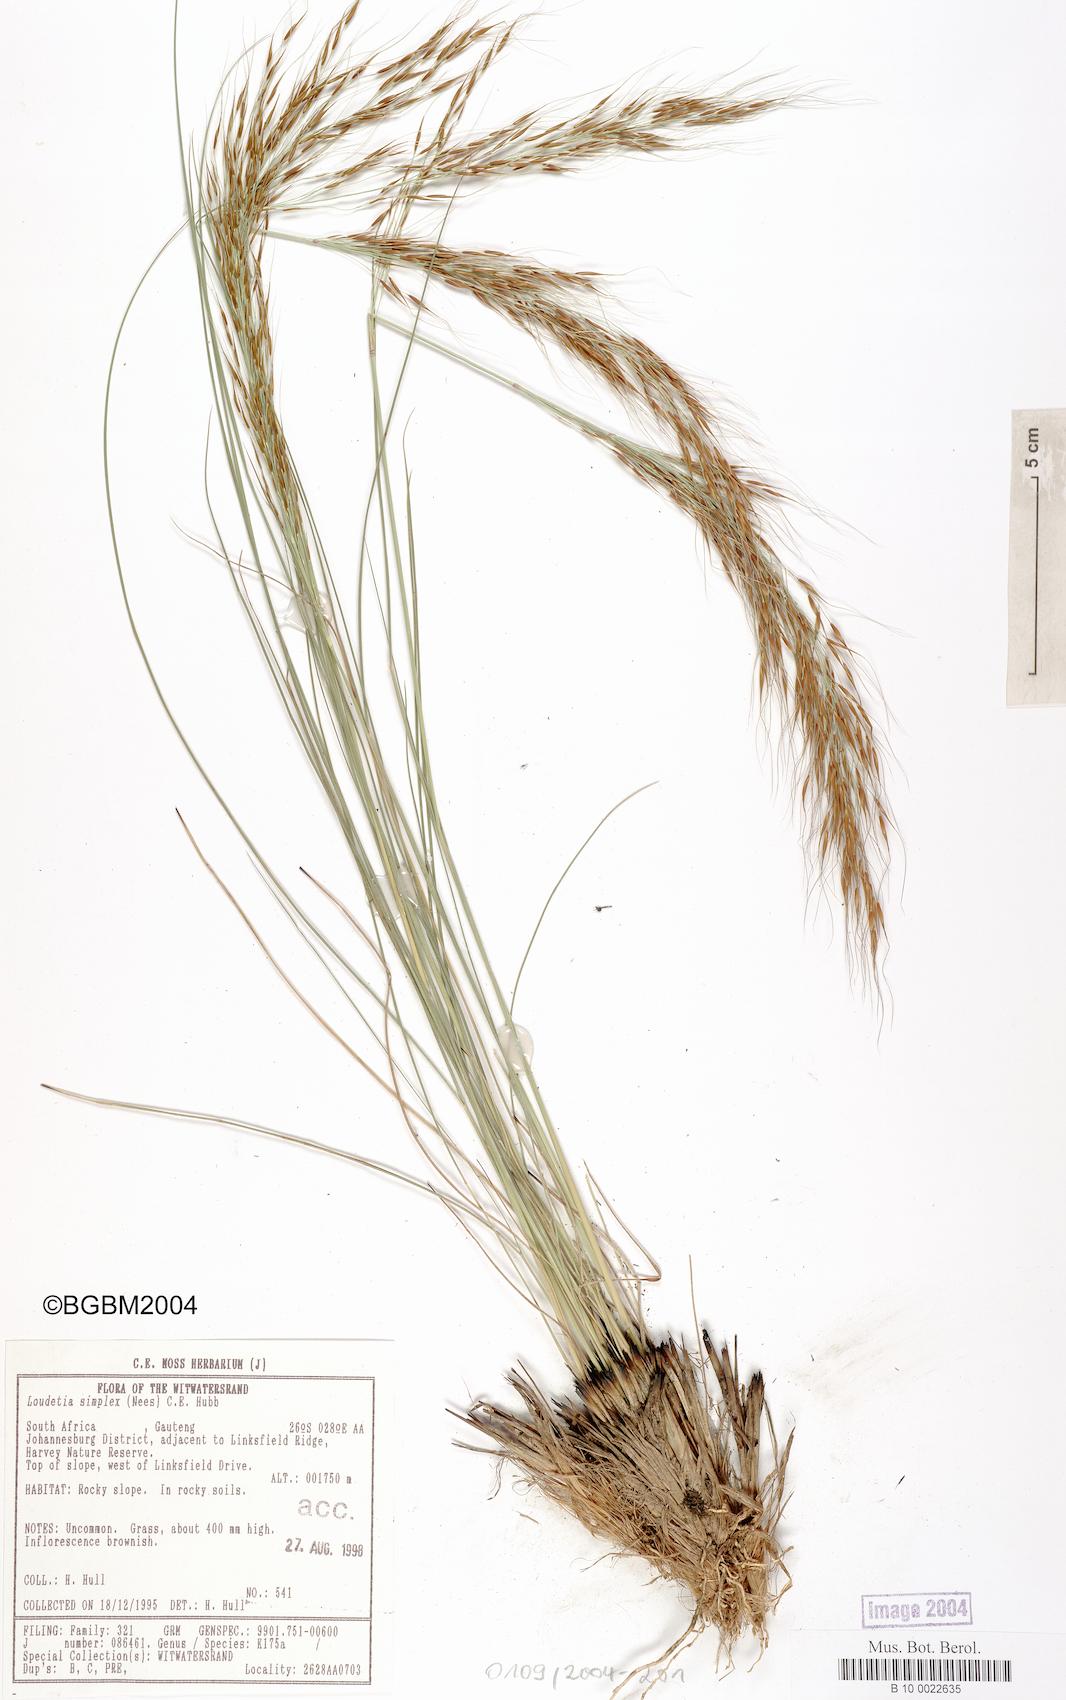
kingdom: Plantae
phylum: Tracheophyta
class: Liliopsida
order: Poales
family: Poaceae
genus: Loudetia
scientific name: Loudetia simplex
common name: Common russet grass
